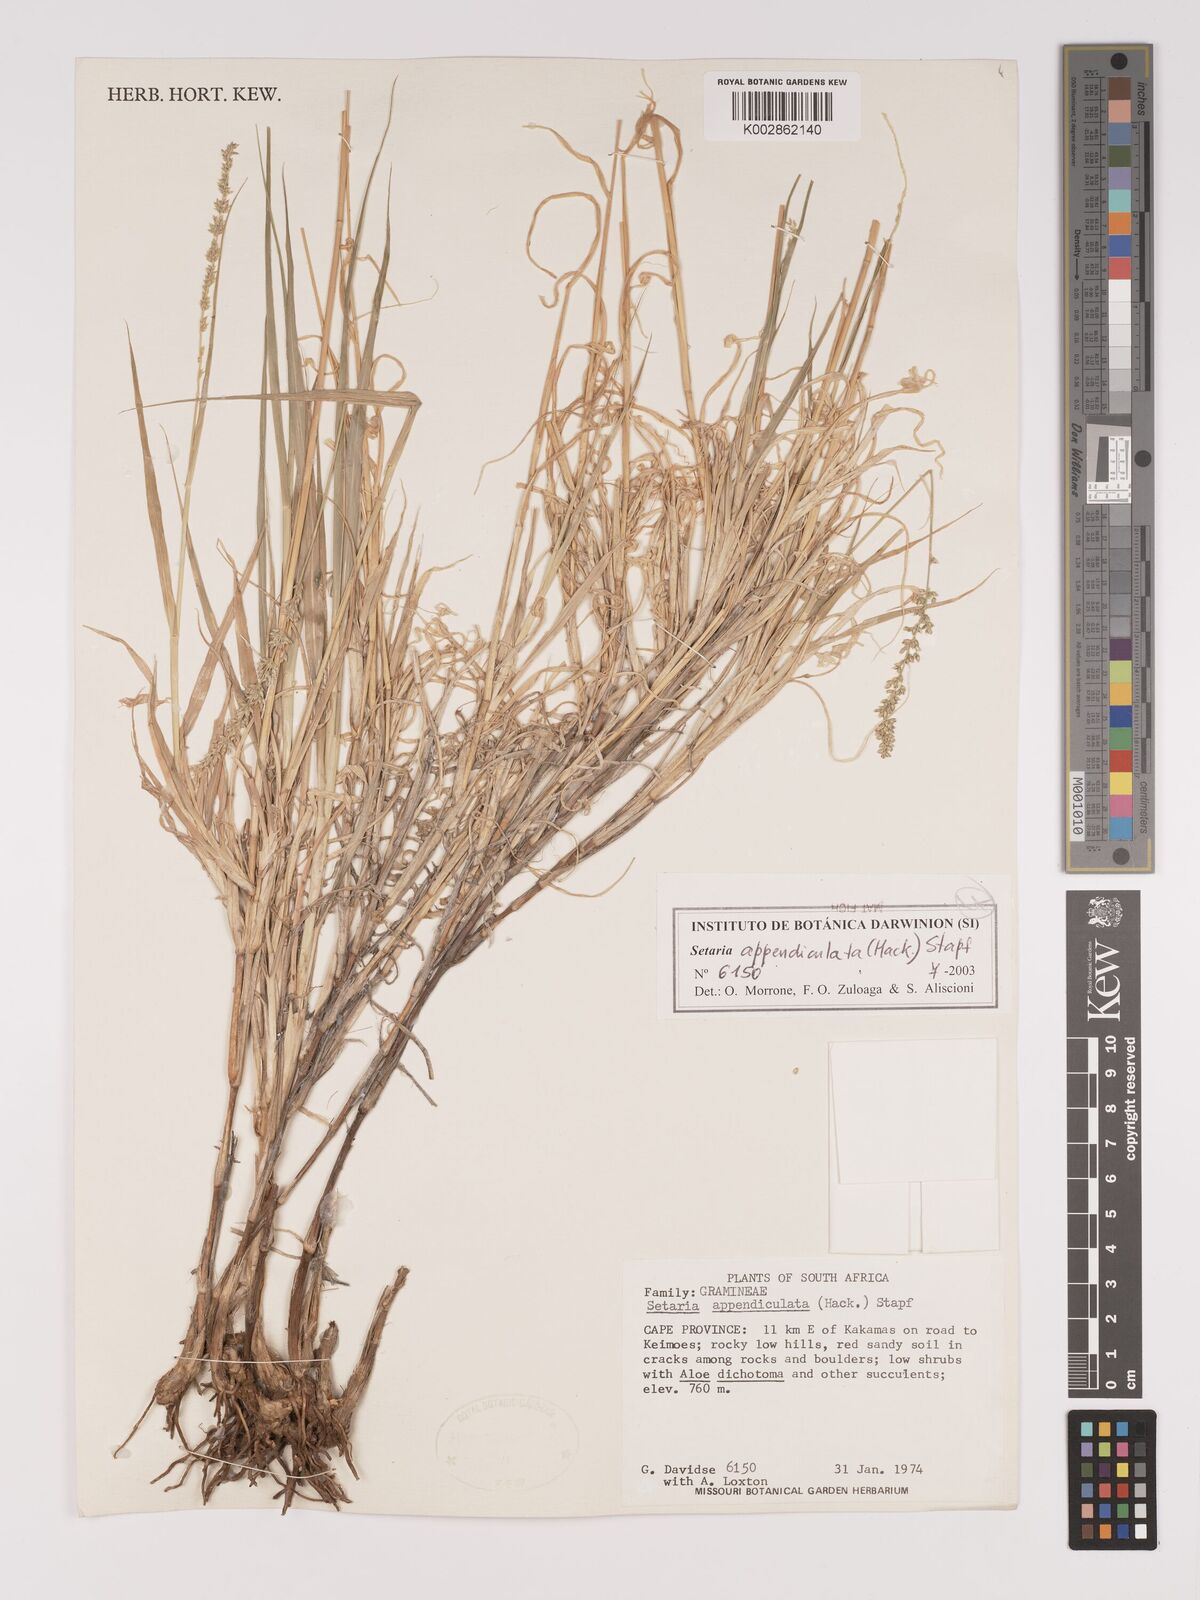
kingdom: Plantae
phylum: Tracheophyta
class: Liliopsida
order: Poales
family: Poaceae
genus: Setaria
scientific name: Setaria appendiculata
